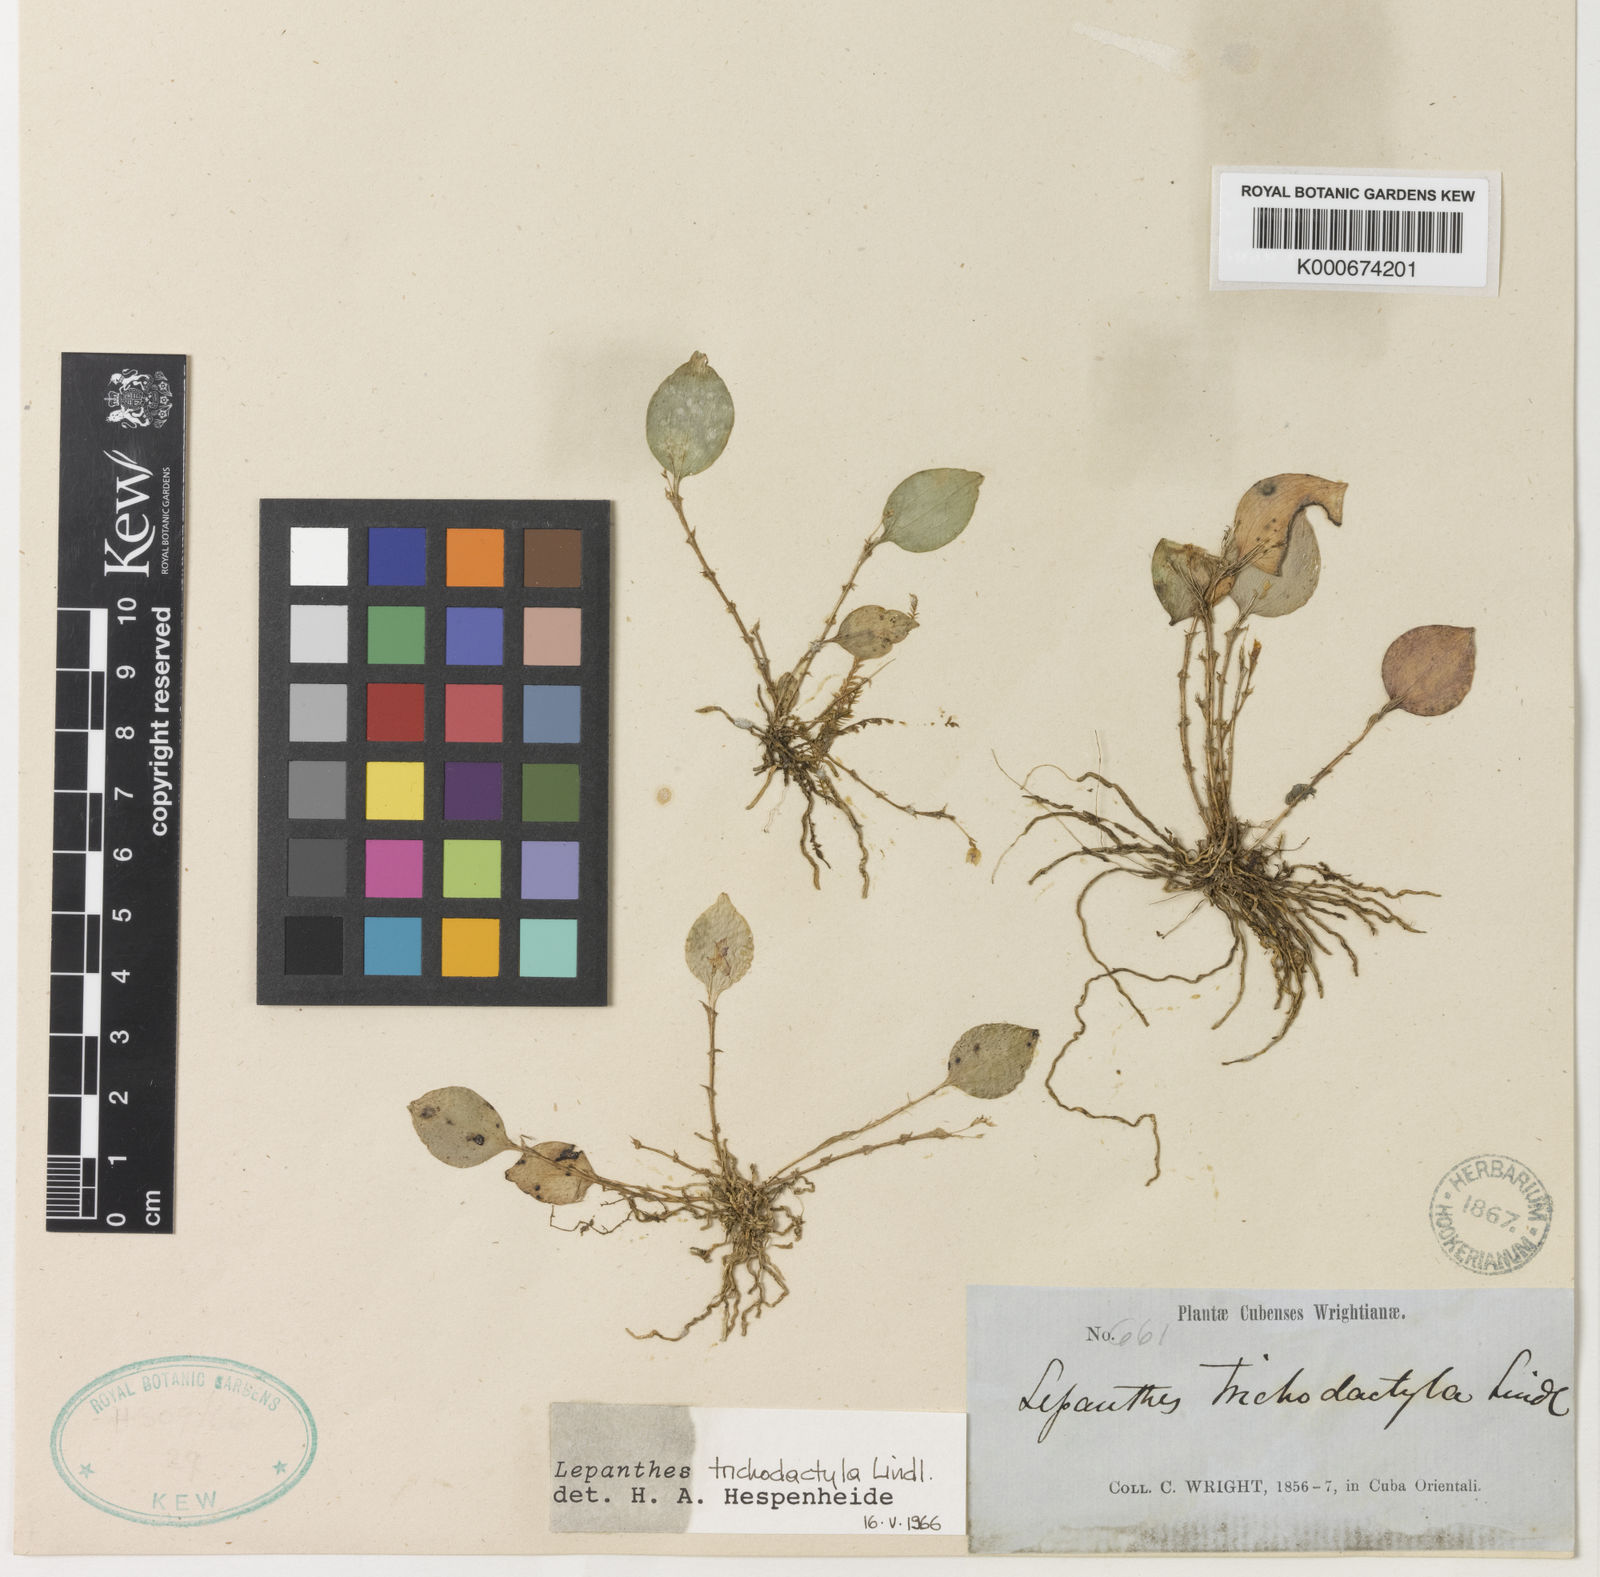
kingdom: Plantae
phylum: Tracheophyta
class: Liliopsida
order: Asparagales
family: Orchidaceae
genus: Lepanthes
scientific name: Lepanthes trichodactyla
